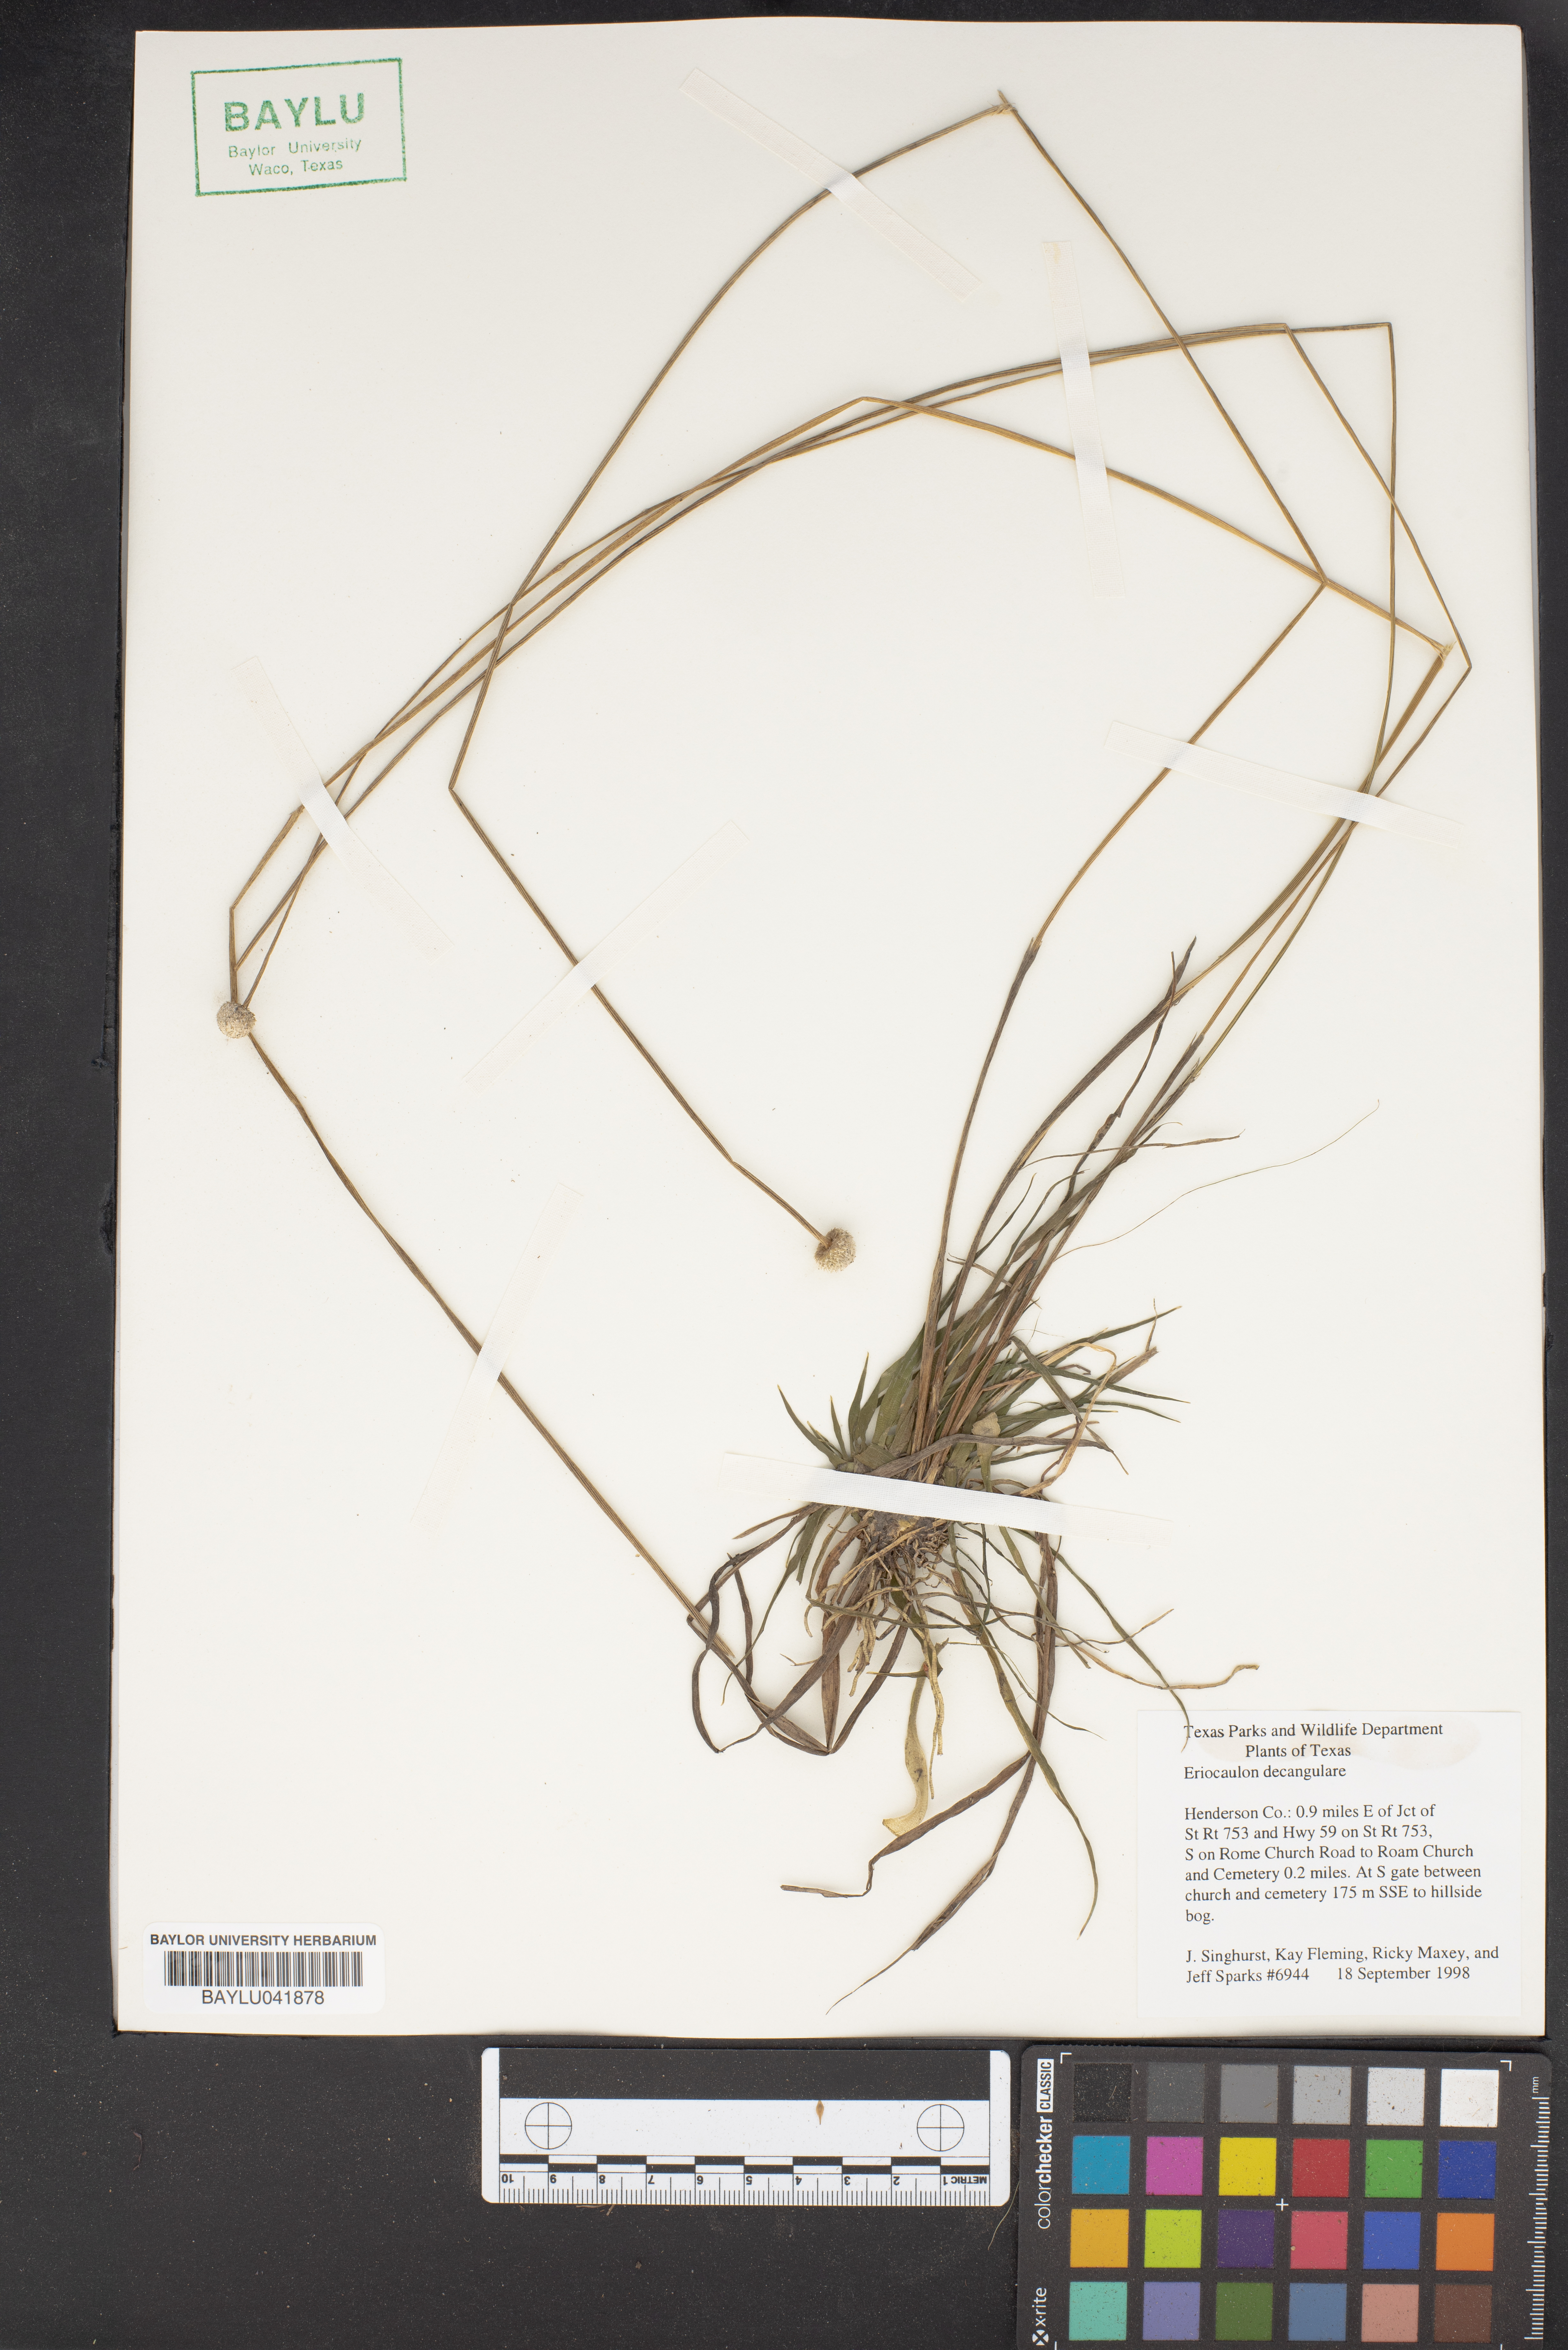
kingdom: Plantae
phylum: Tracheophyta
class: Liliopsida
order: Poales
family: Eriocaulaceae
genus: Eriocaulon
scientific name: Eriocaulon decangulare
